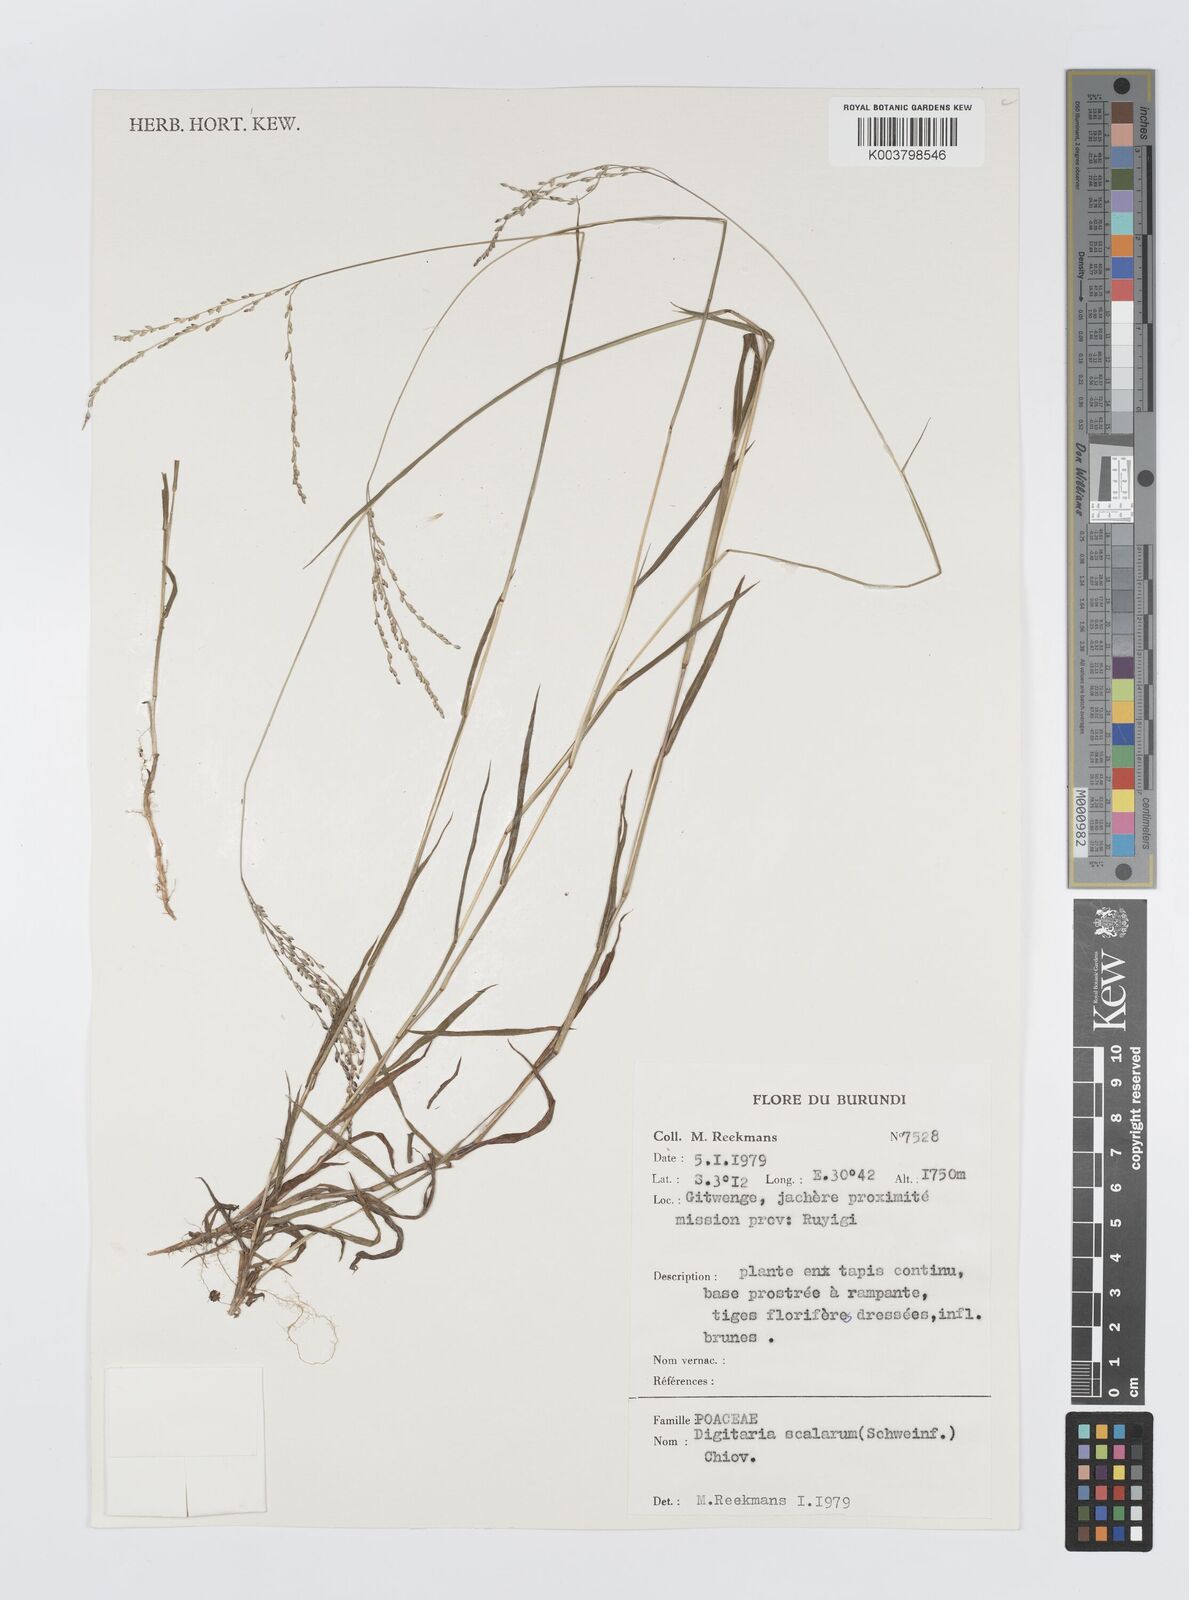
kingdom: Plantae
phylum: Tracheophyta
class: Liliopsida
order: Poales
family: Poaceae
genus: Digitaria
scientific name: Digitaria abyssinica
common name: African couchgrass
